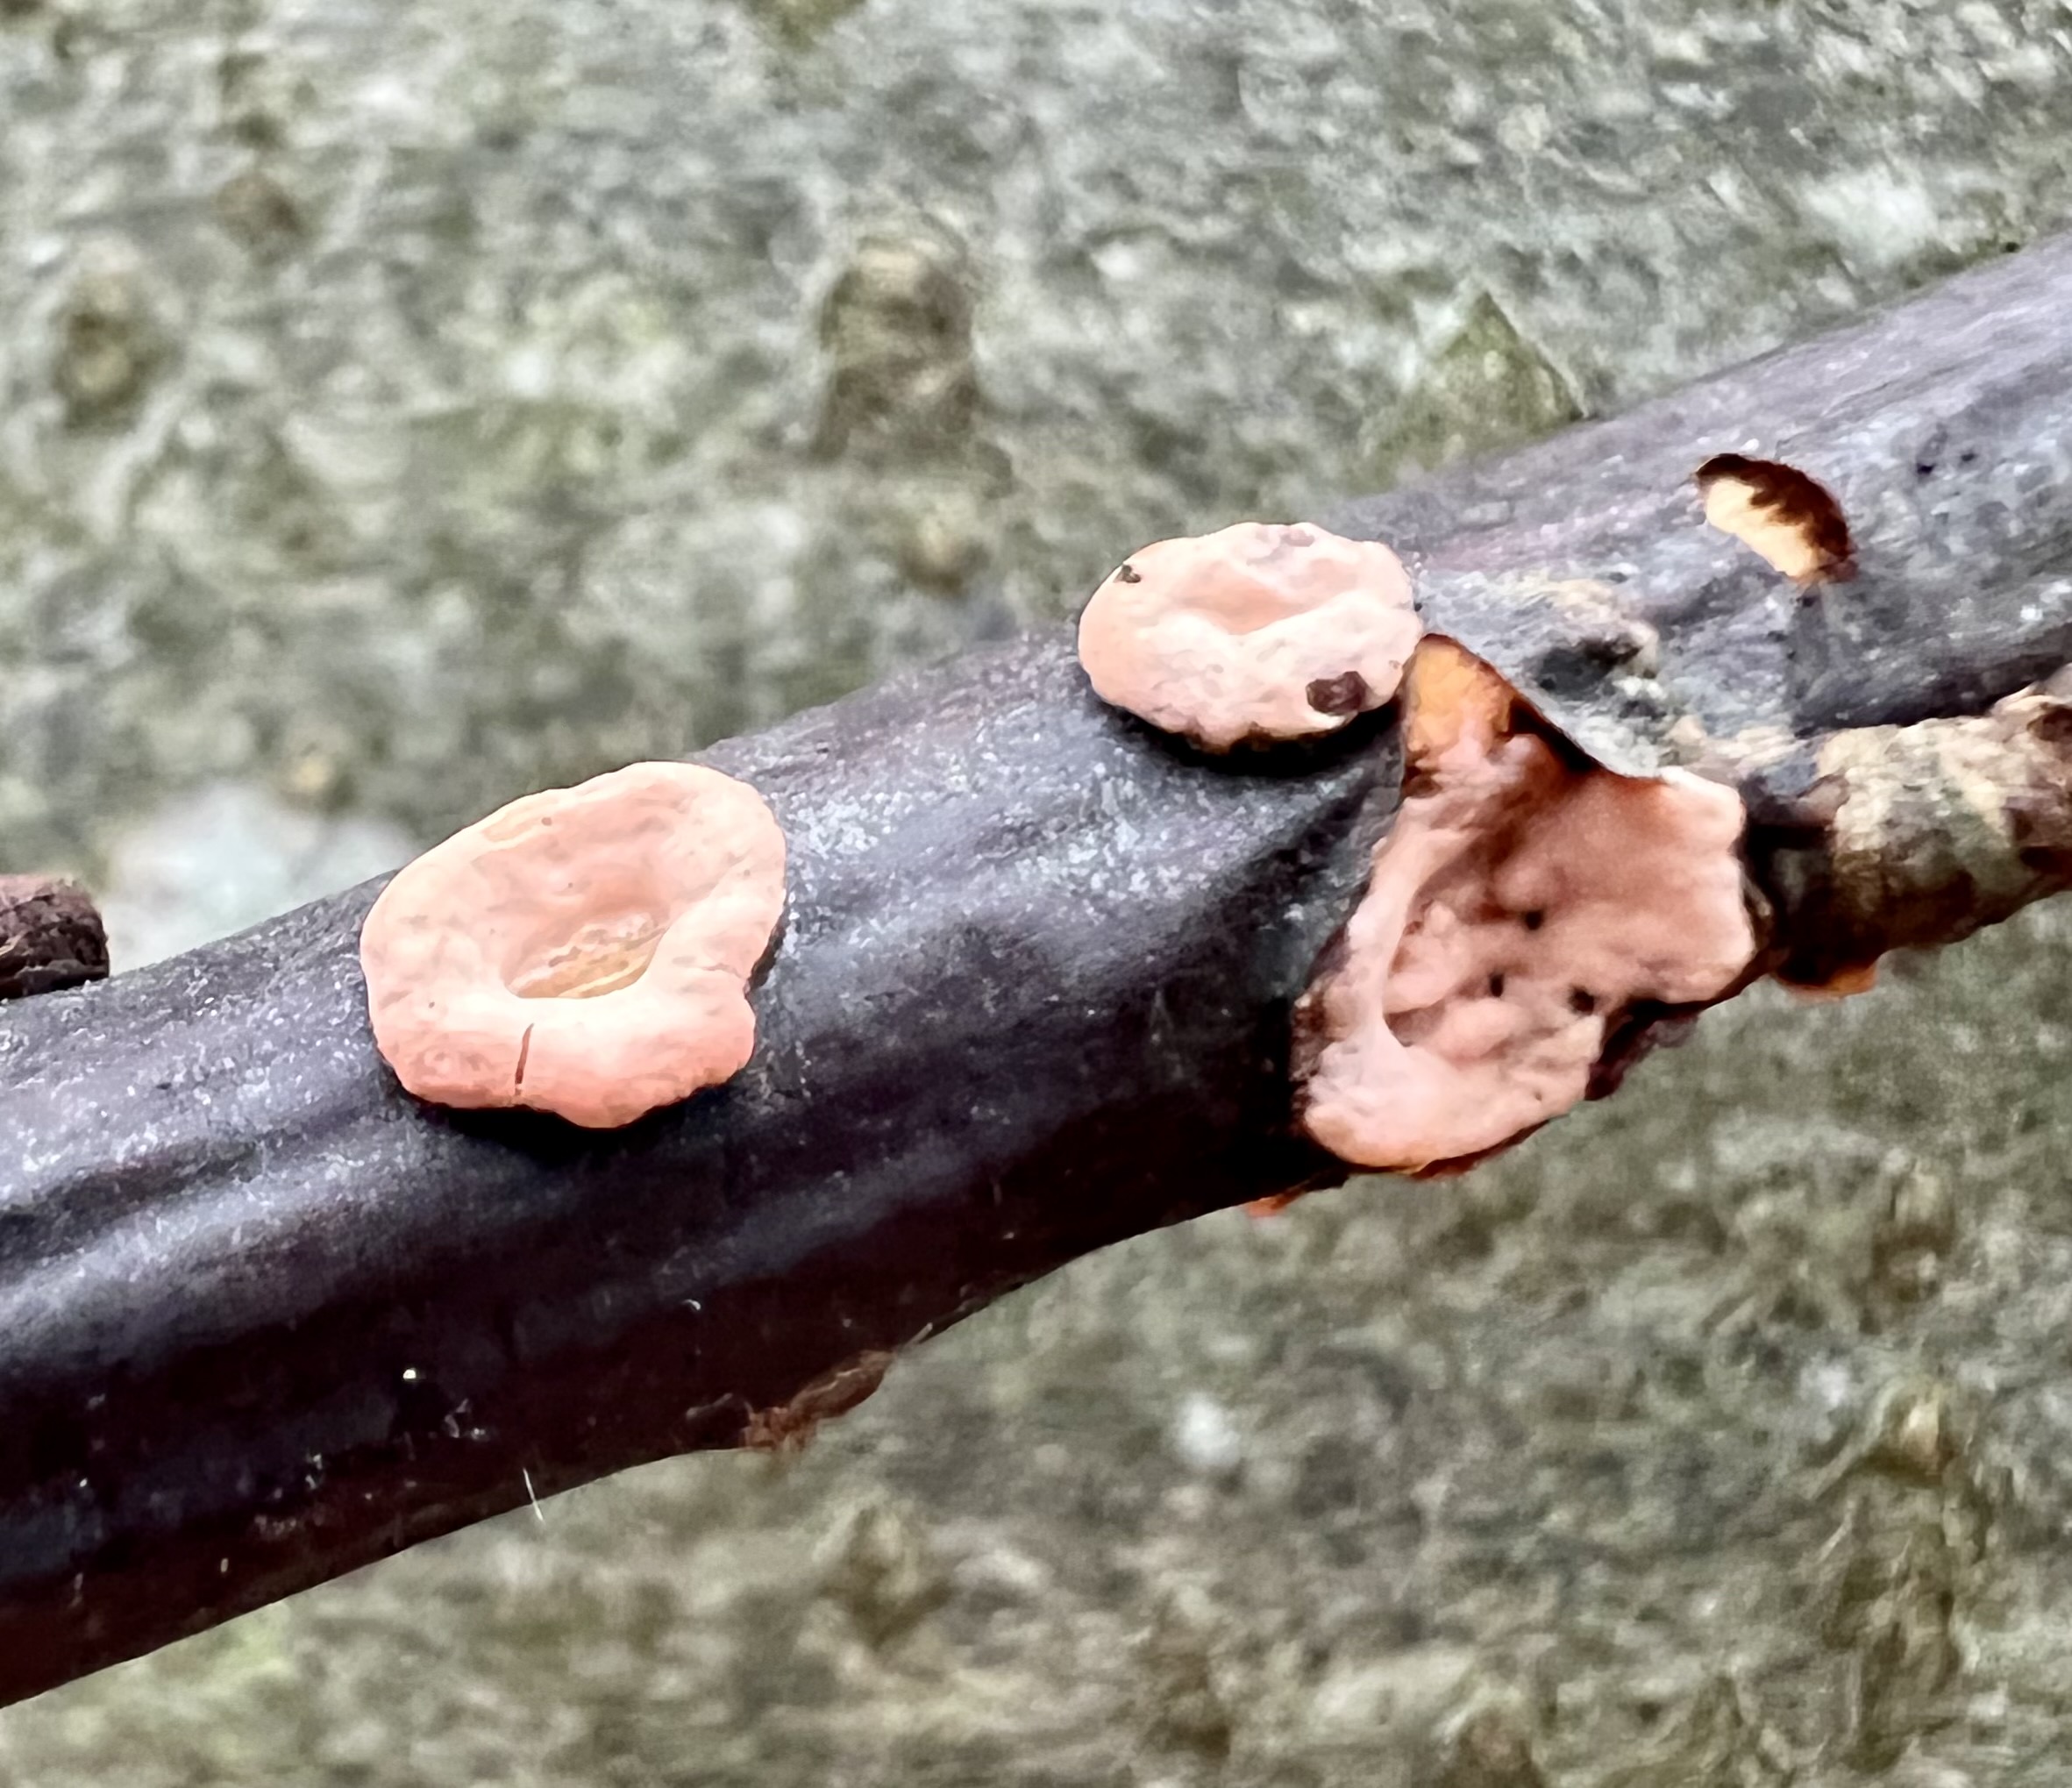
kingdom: Fungi
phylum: Ascomycota
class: Sordariomycetes
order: Hypocreales
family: Nectriaceae
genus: Nectria
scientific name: Nectria cinnabarina
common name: almindelig cinnobersvamp
